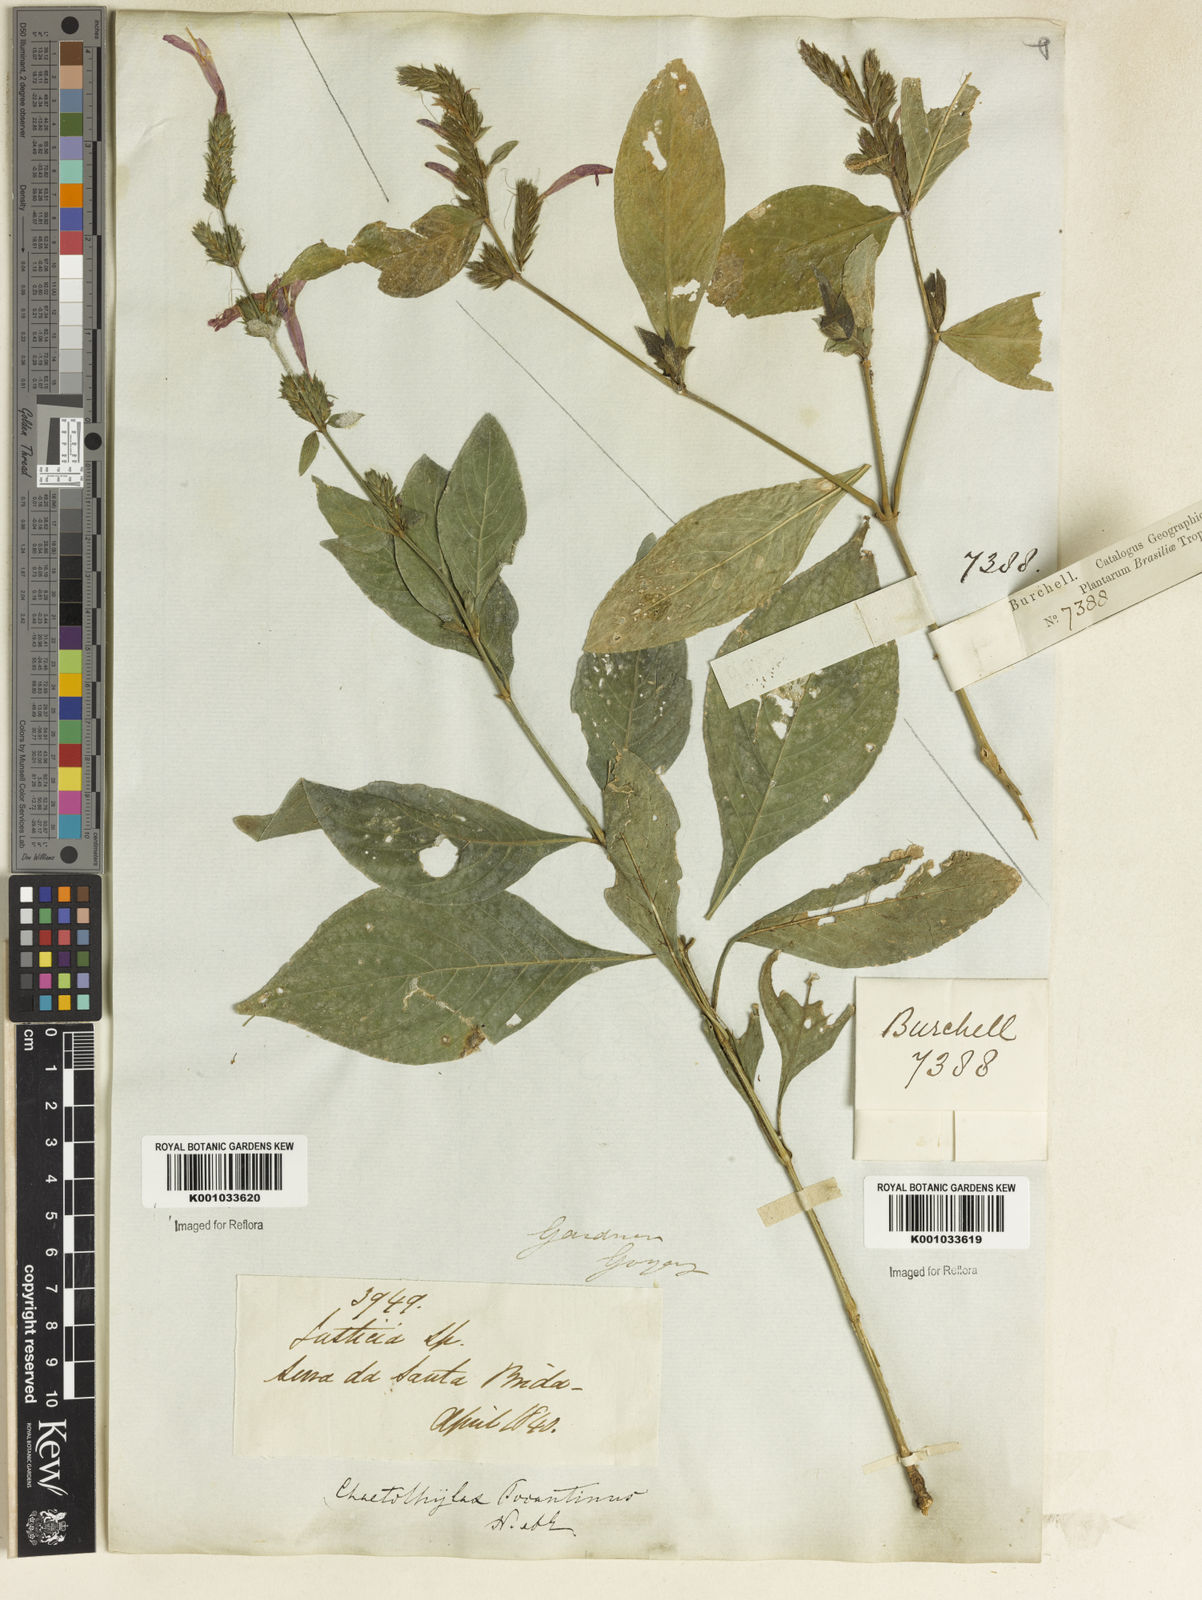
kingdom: Plantae
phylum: Tracheophyta
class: Magnoliopsida
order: Lamiales
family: Acanthaceae
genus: Justicia
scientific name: Justicia tocantina
